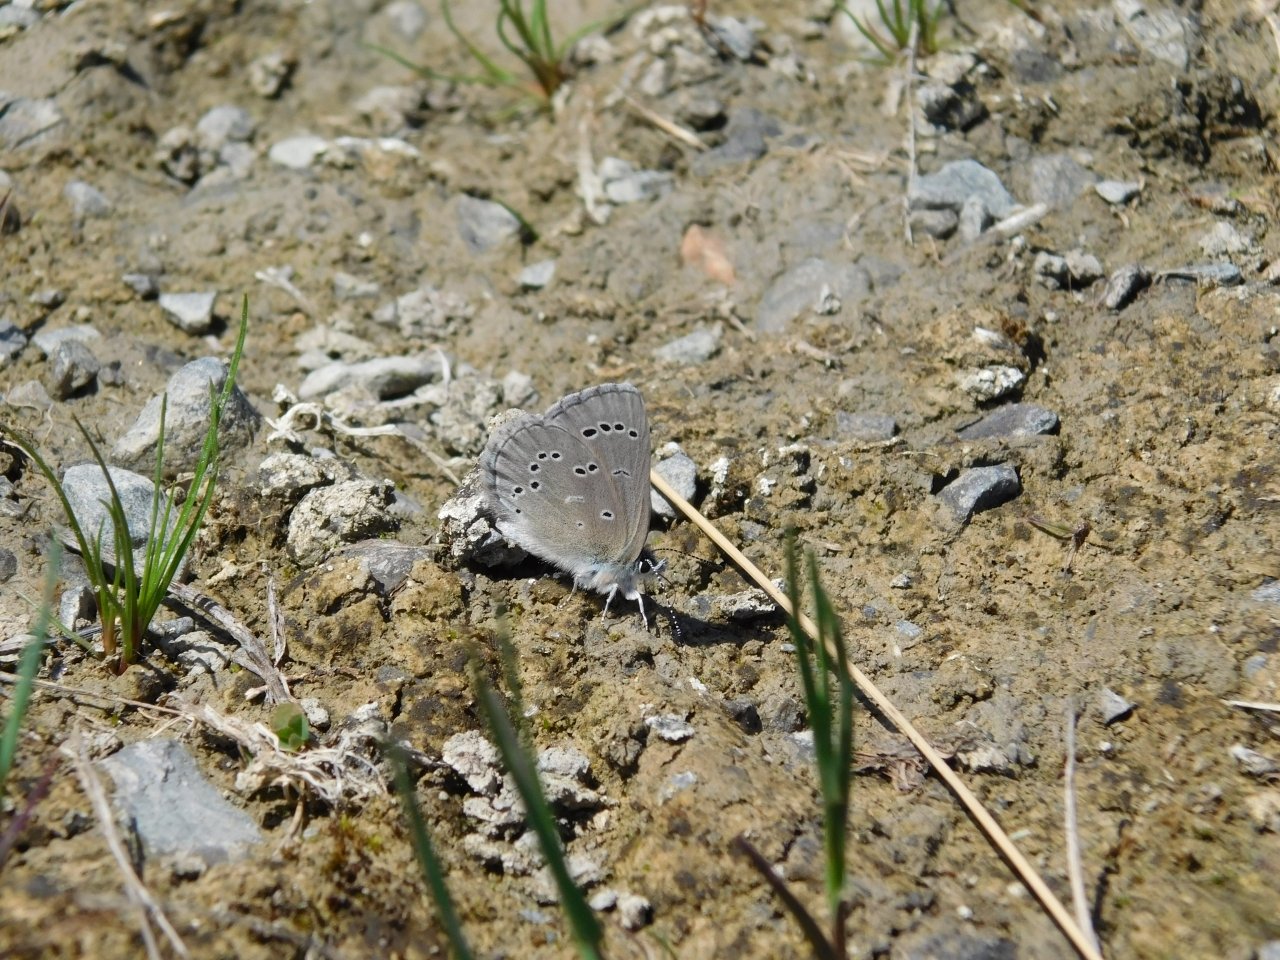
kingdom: Animalia
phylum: Arthropoda
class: Insecta
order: Lepidoptera
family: Lycaenidae
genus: Glaucopsyche
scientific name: Glaucopsyche lygdamus
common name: Silvery Blue
